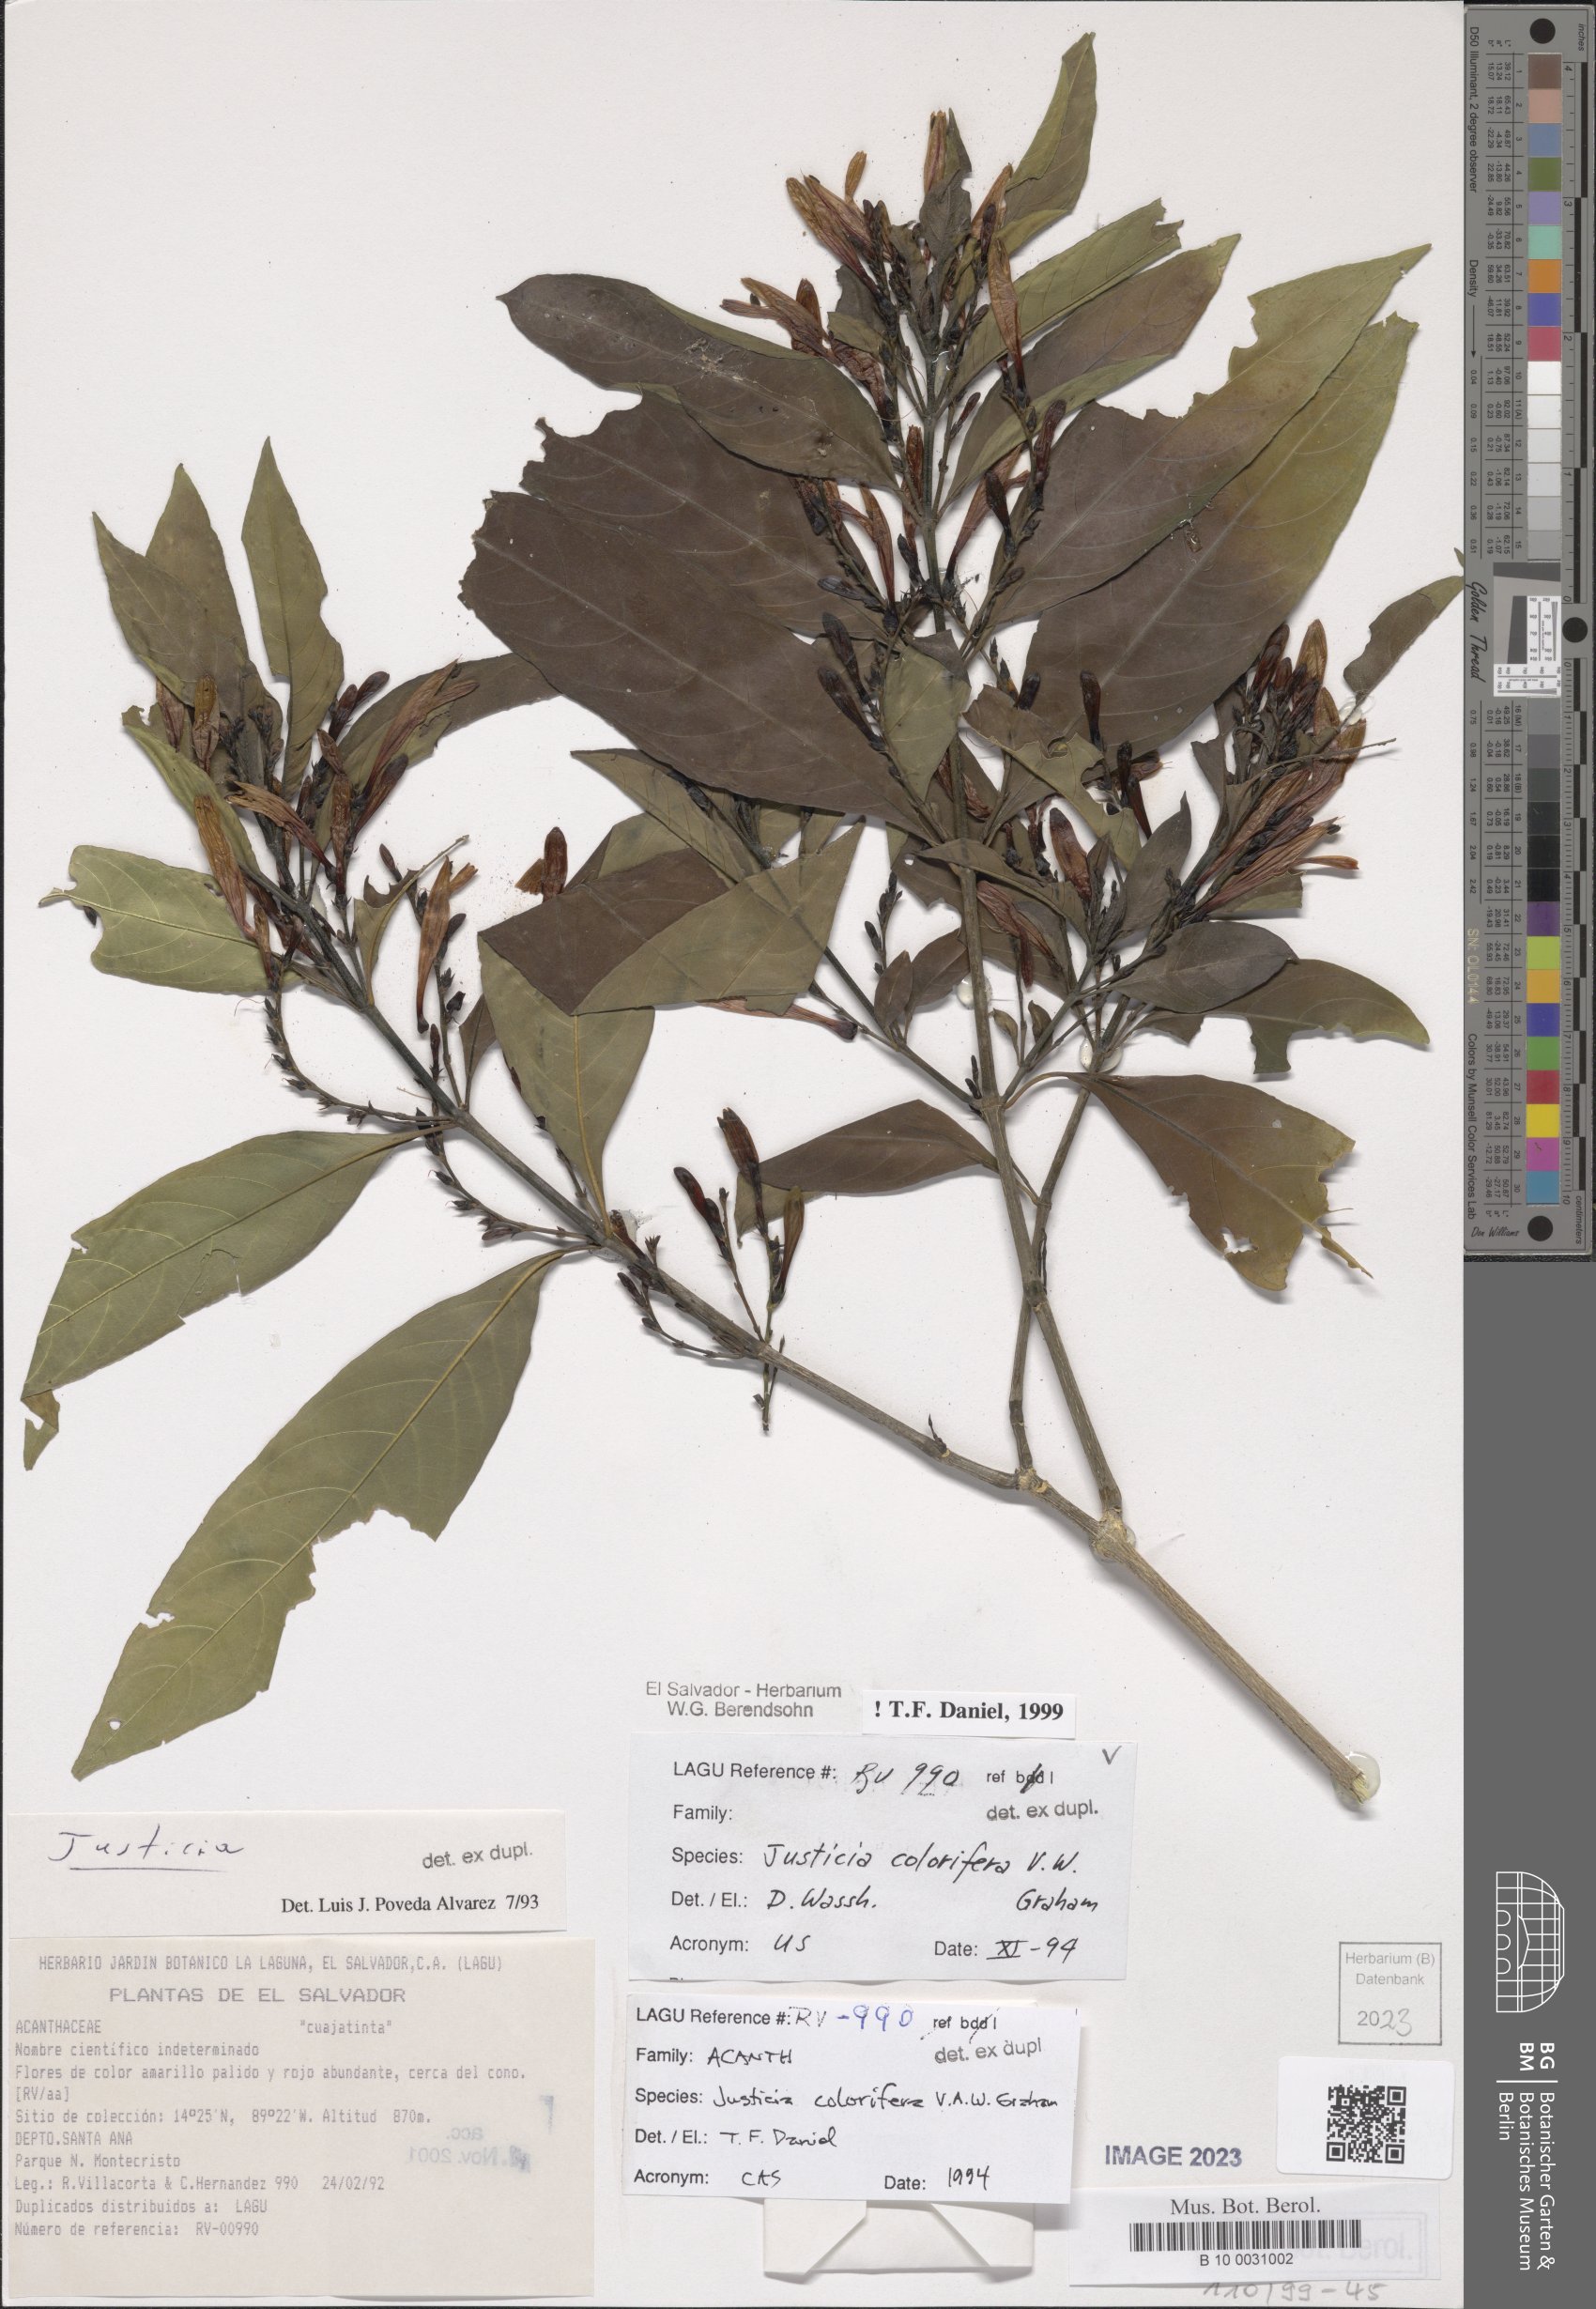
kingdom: Plantae
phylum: Tracheophyta
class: Magnoliopsida
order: Lamiales
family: Acanthaceae
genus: Justicia
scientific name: Justicia tinctoriella
